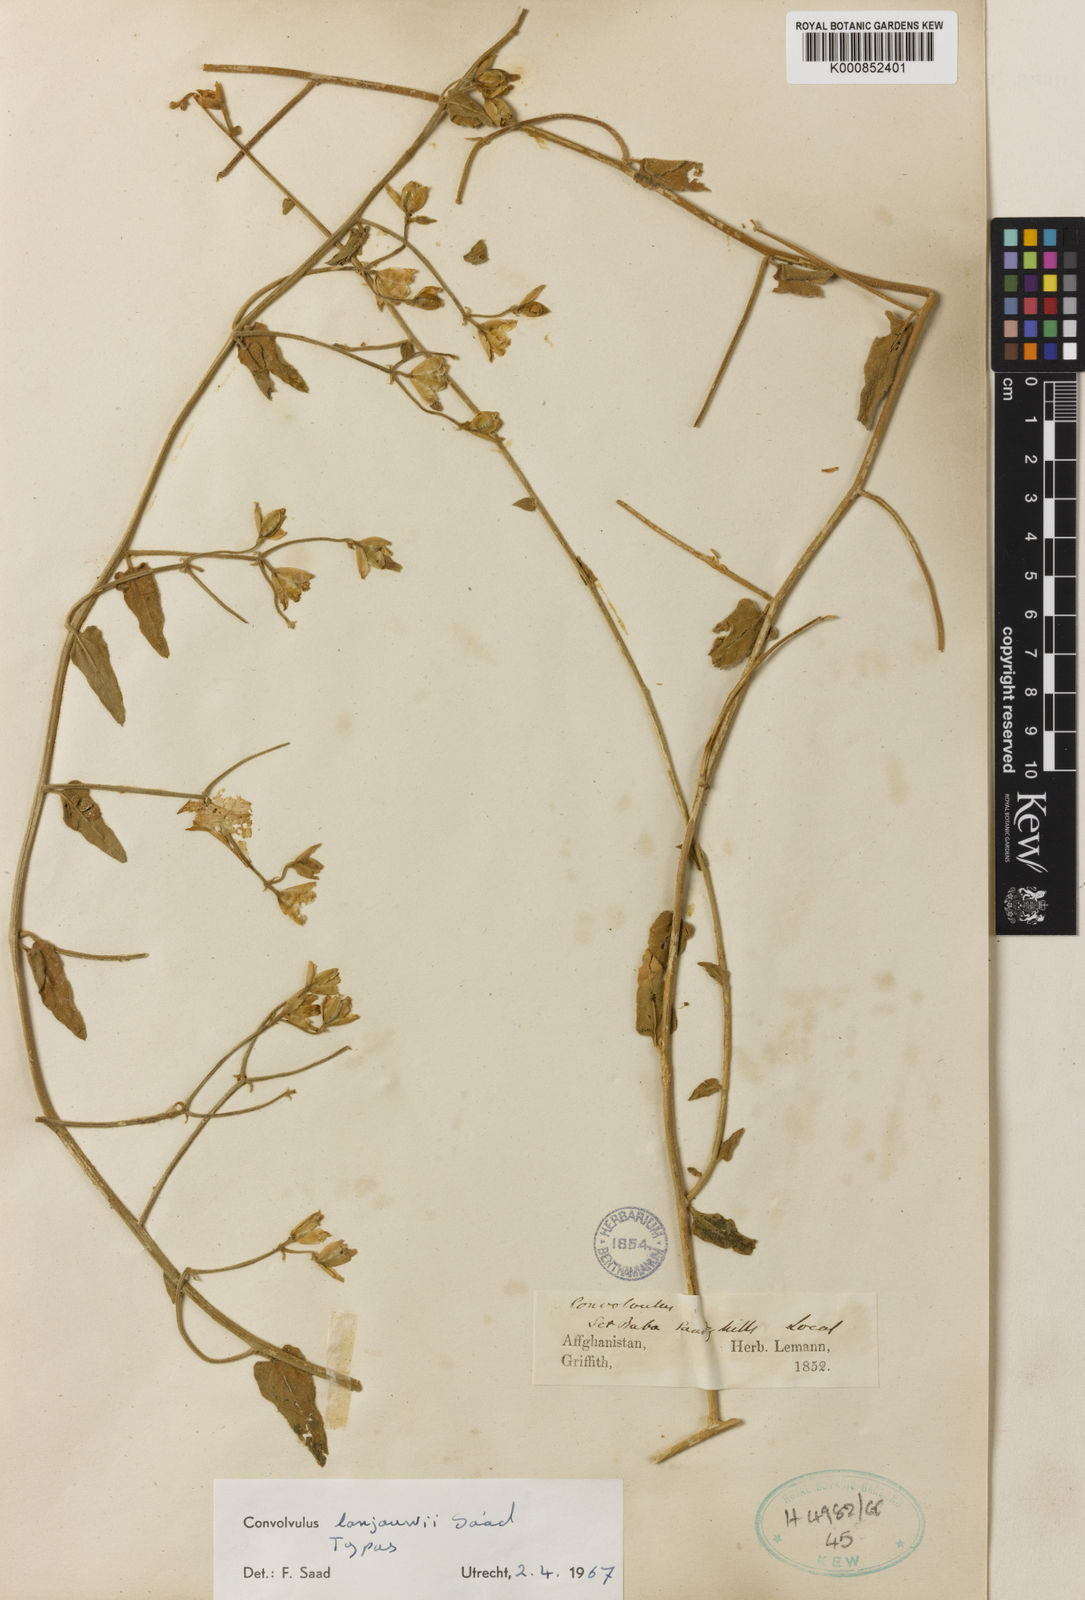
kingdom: Plantae
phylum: Tracheophyta
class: Magnoliopsida
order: Solanales
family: Convolvulaceae
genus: Convolvulus
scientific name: Convolvulus lanjouwii
